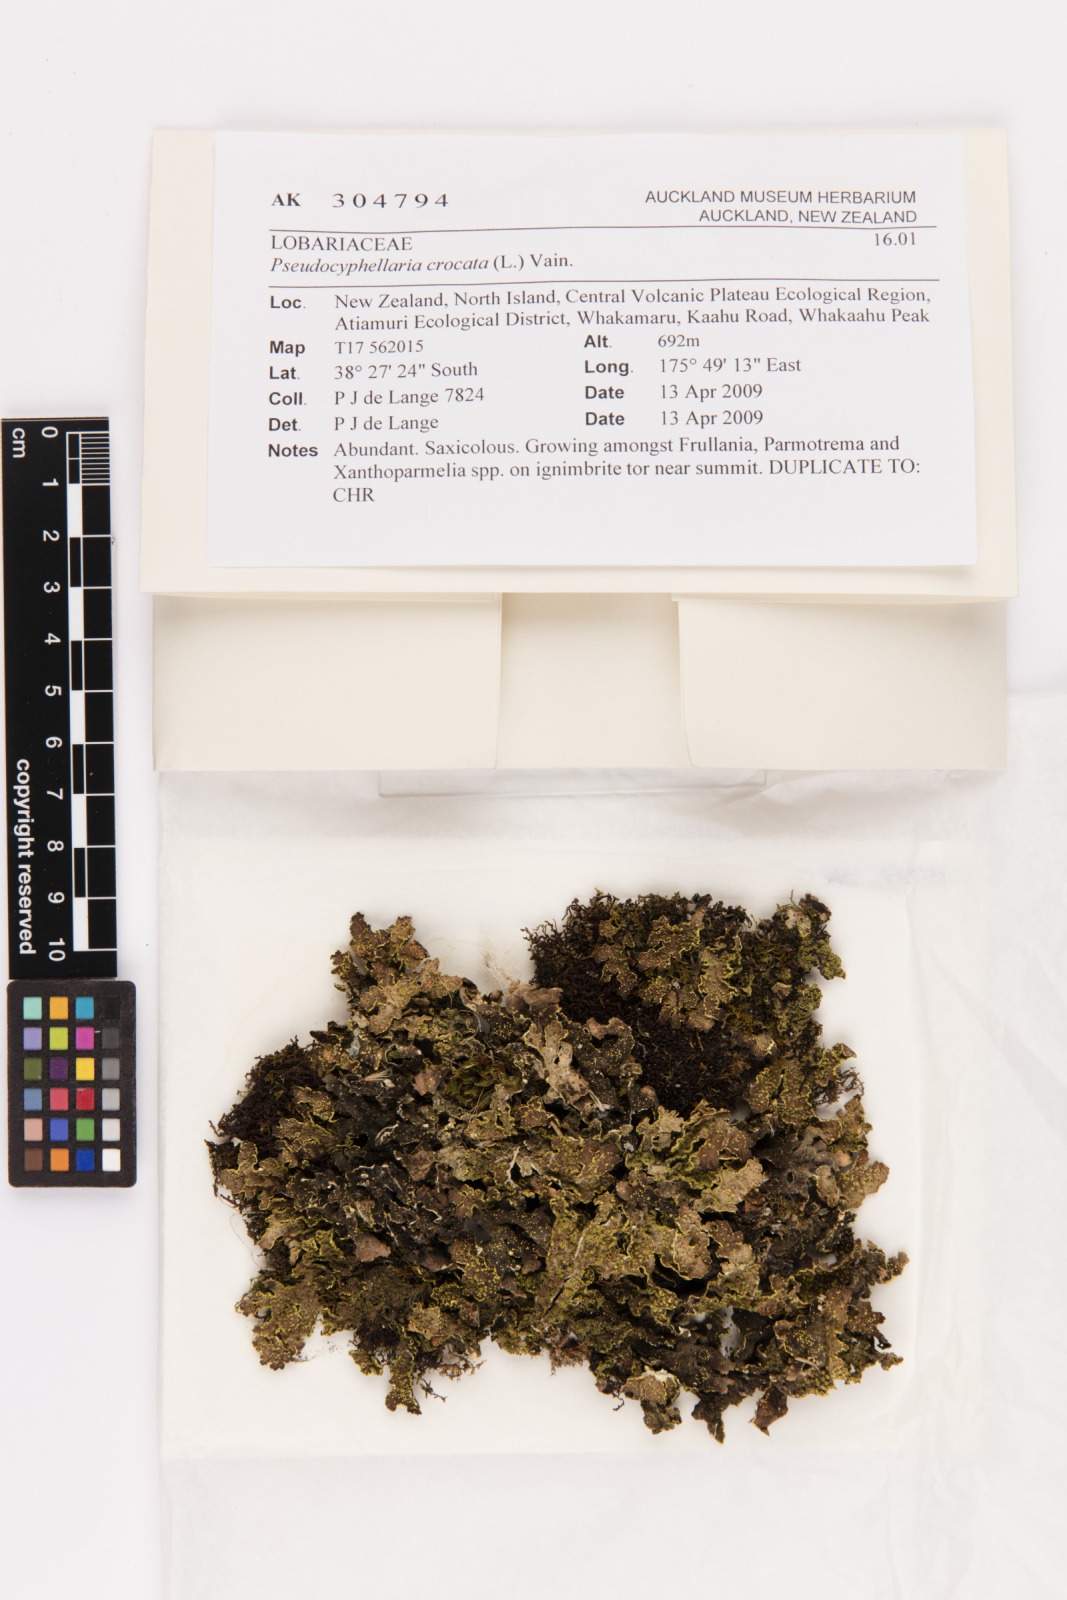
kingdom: Fungi
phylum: Ascomycota
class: Lecanoromycetes
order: Peltigerales
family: Lobariaceae
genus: Pseudocyphellaria
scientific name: Pseudocyphellaria crocata
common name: Golden specklebelly
